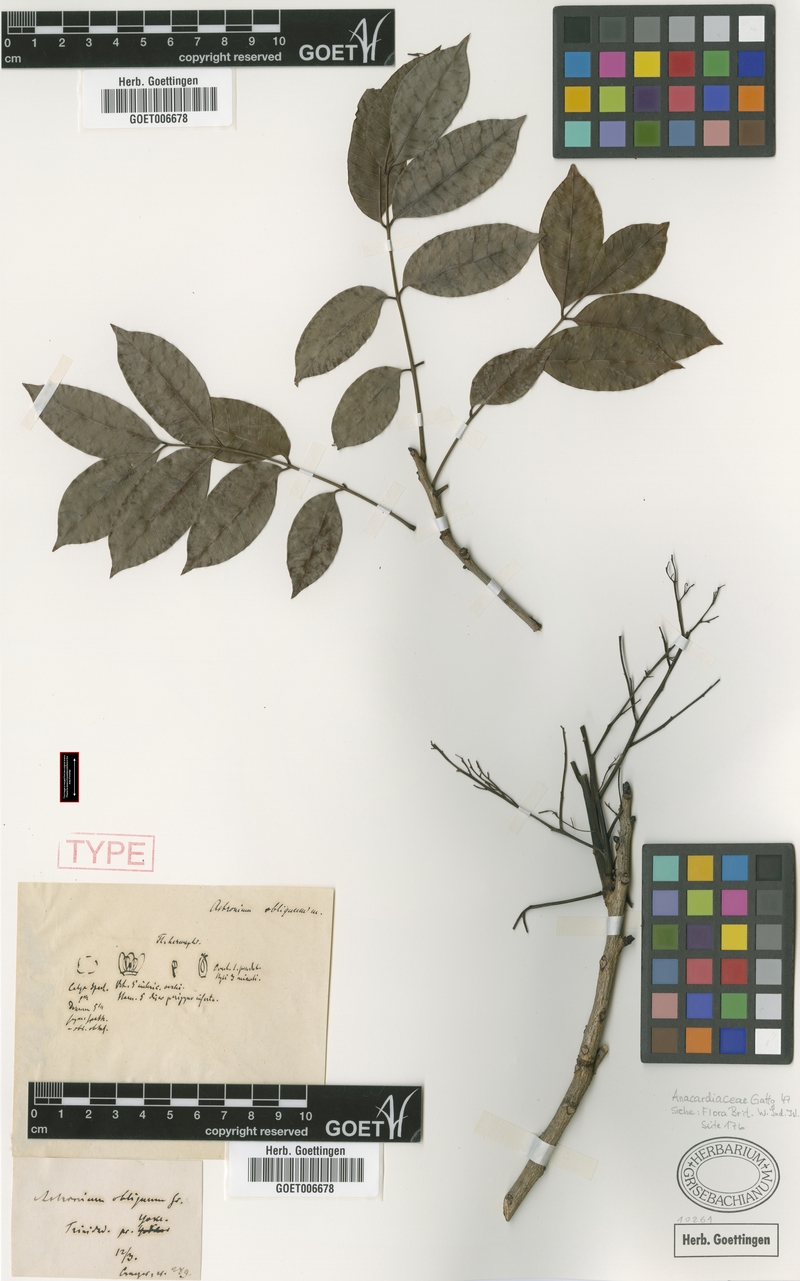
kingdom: Plantae
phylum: Tracheophyta
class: Magnoliopsida
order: Sapindales
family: Anacardiaceae
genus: Astronium
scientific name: Astronium obliquum
